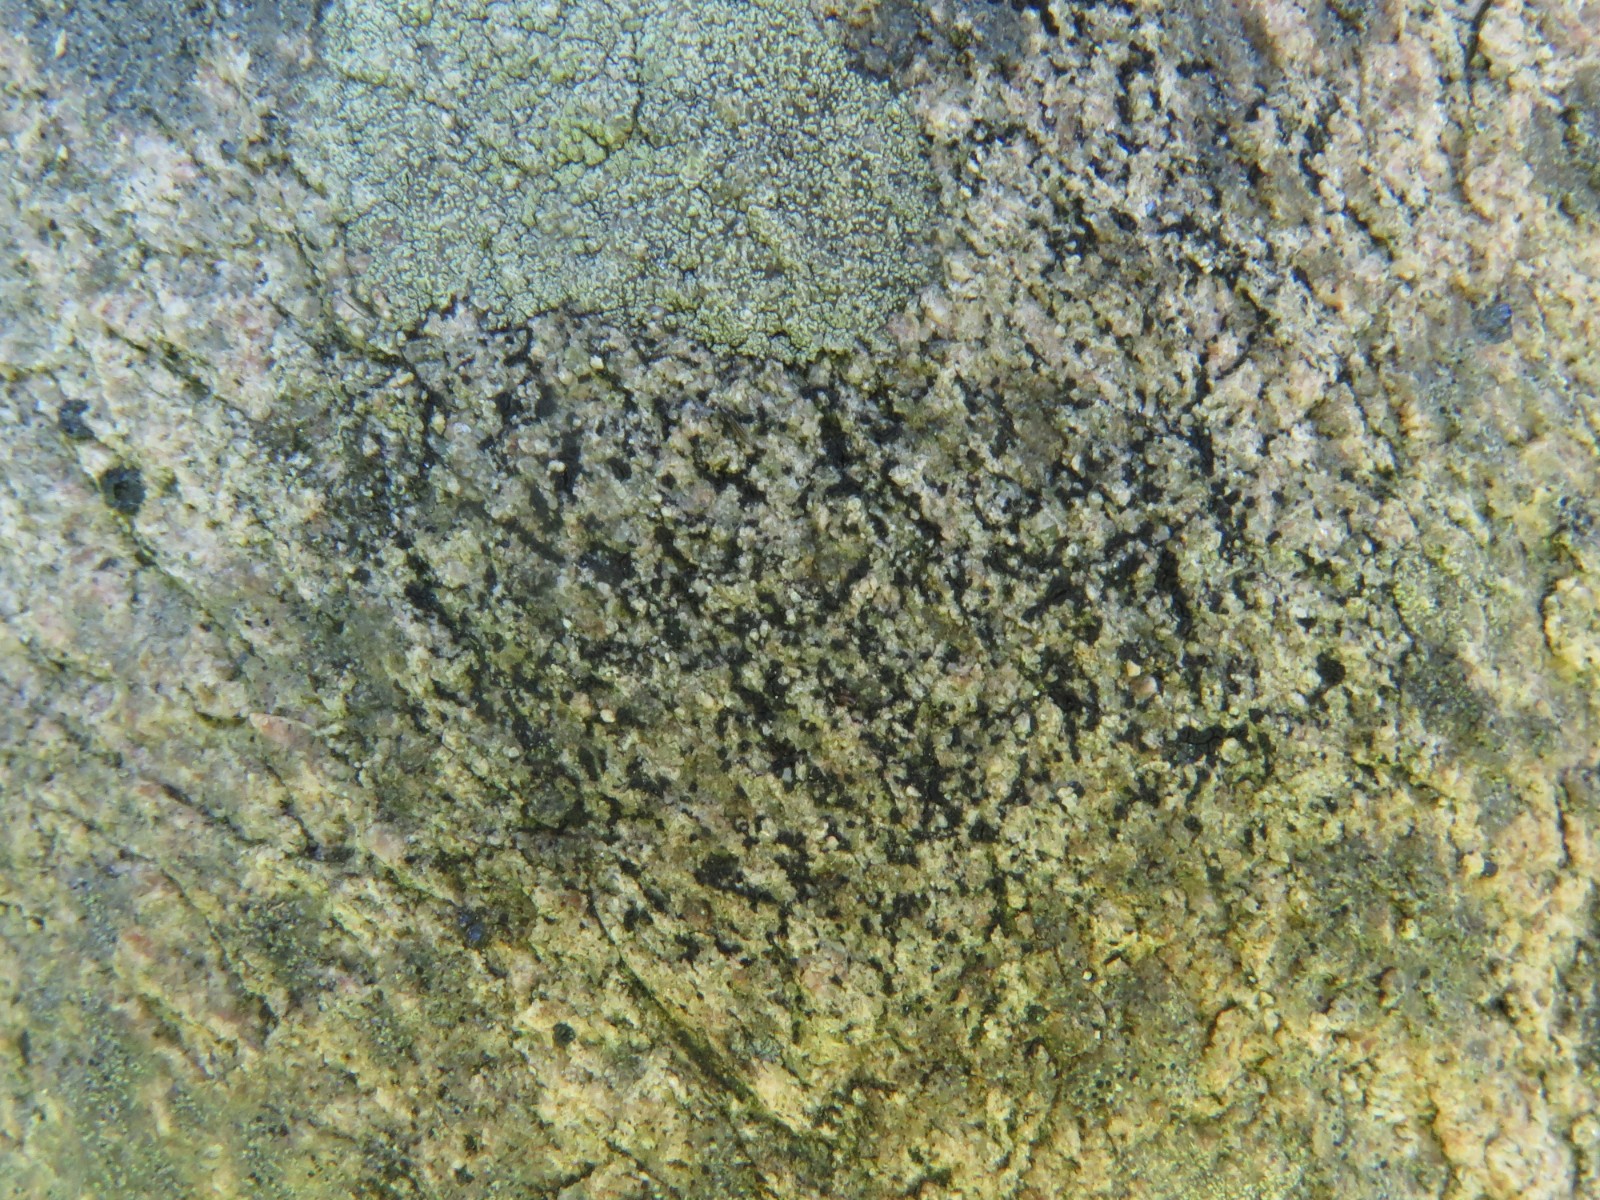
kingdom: Fungi
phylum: Ascomycota
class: Lecanoromycetes
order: Acarosporales
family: Acarosporaceae
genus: Acarospora
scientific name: Acarospora privigna
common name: sort foldekantlav
